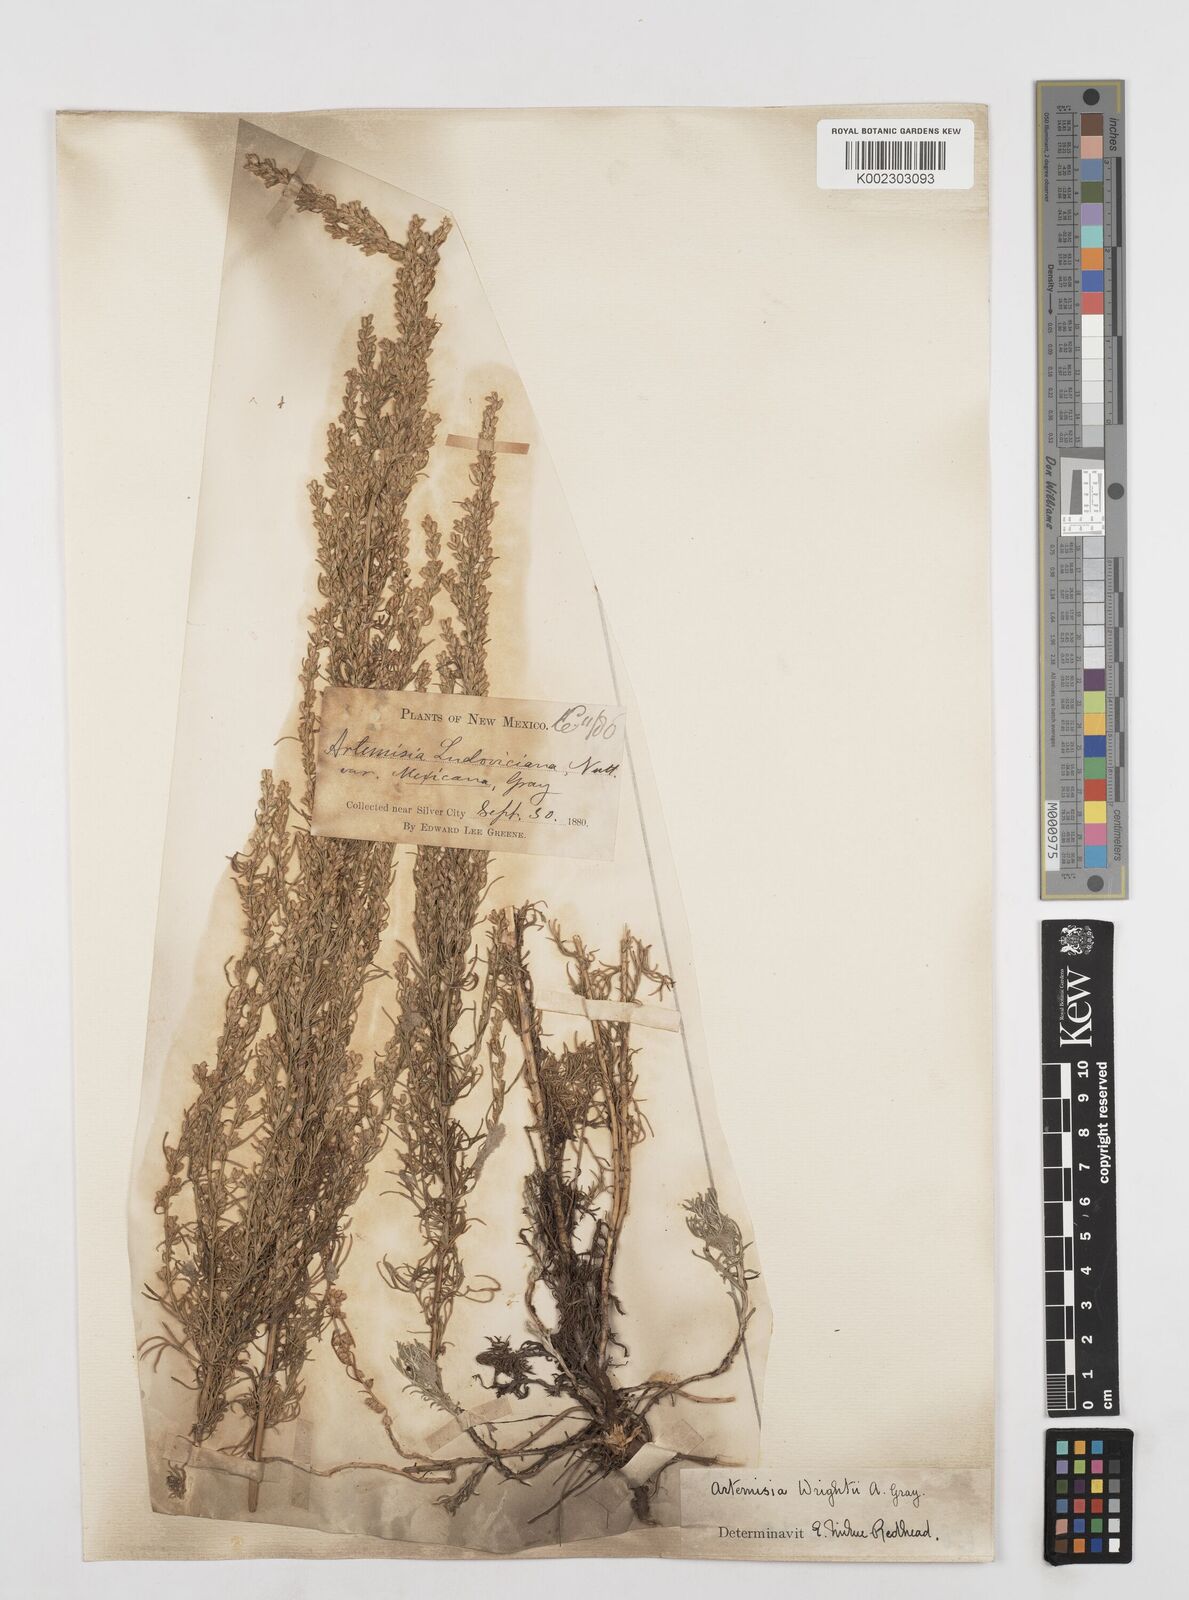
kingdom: Plantae
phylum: Tracheophyta
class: Magnoliopsida
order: Asterales
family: Asteraceae
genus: Artemisia
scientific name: Artemisia carruthii
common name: Carruth wormwood
